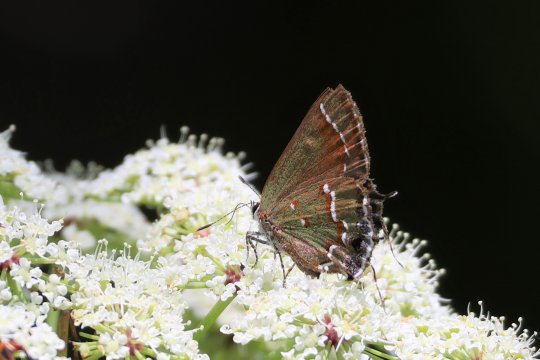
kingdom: Animalia
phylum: Arthropoda
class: Insecta
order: Lepidoptera
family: Lycaenidae
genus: Mitoura
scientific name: Mitoura gryneus
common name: Juniper Hairstreak
